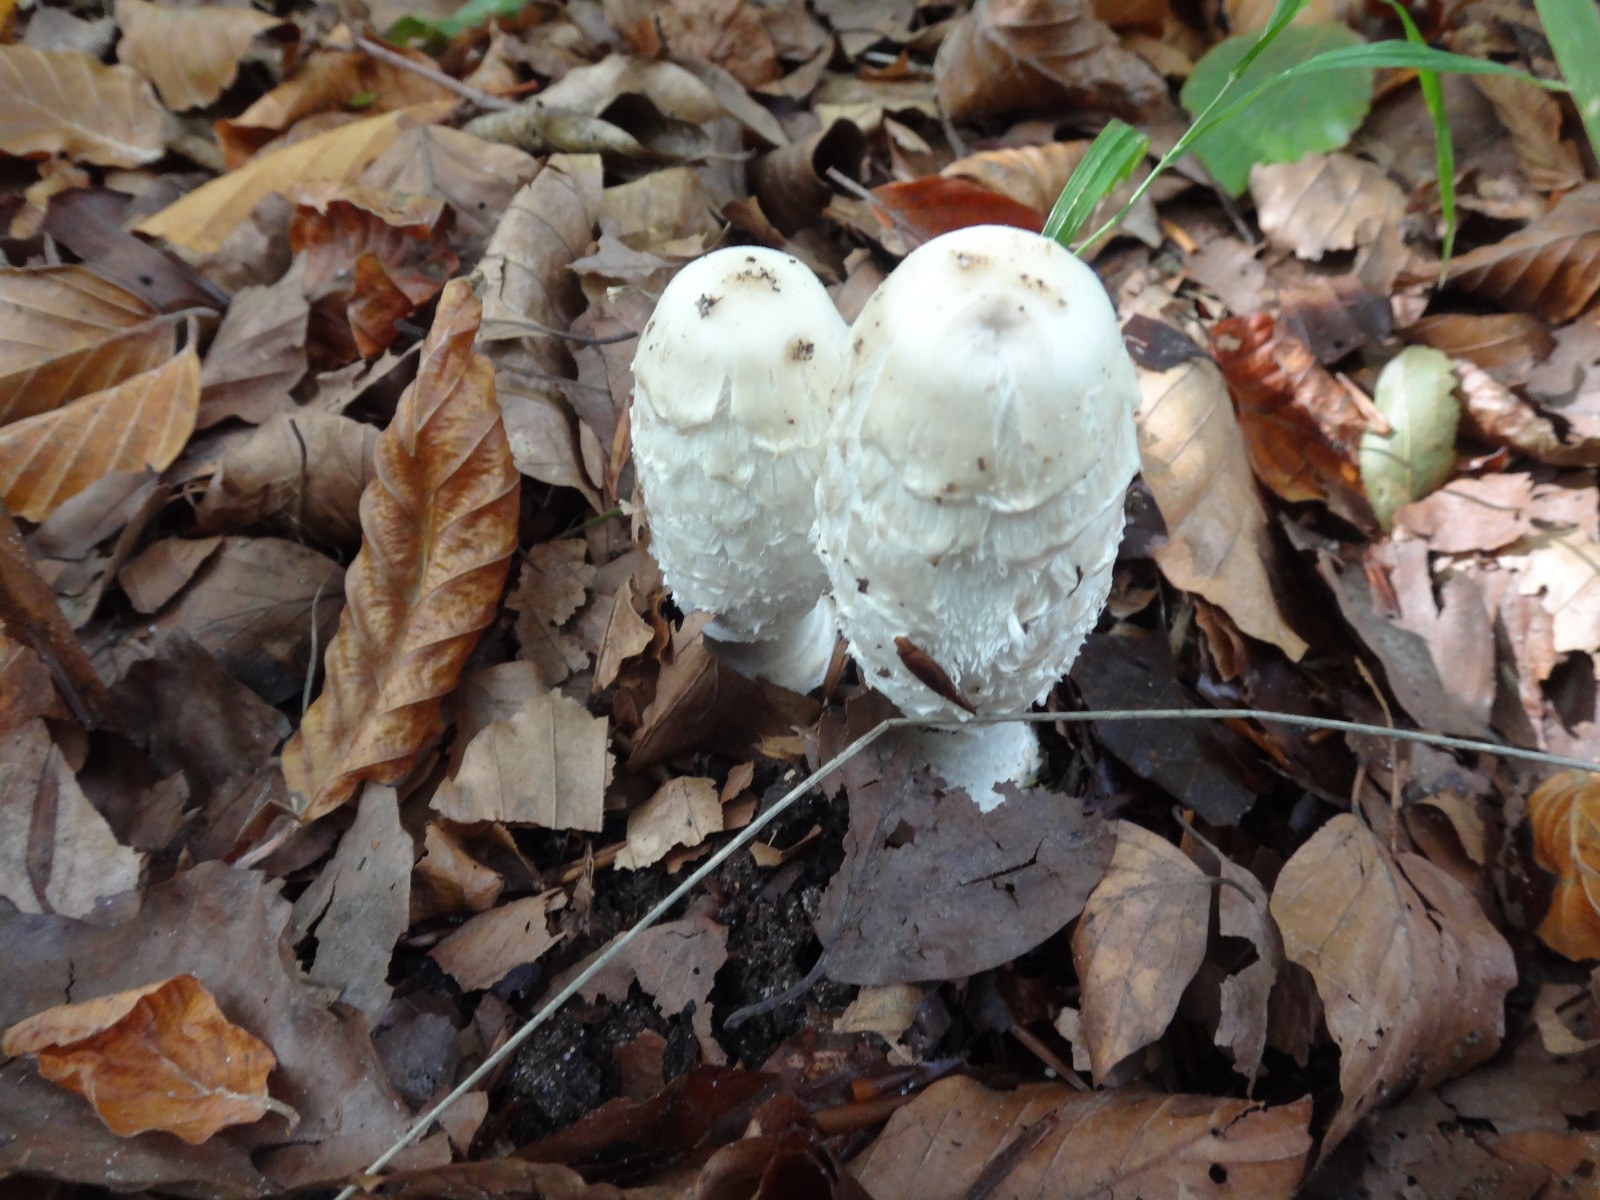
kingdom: Fungi
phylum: Basidiomycota
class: Agaricomycetes
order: Agaricales
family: Agaricaceae
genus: Coprinus
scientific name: Coprinus comatus
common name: stor parykhat
